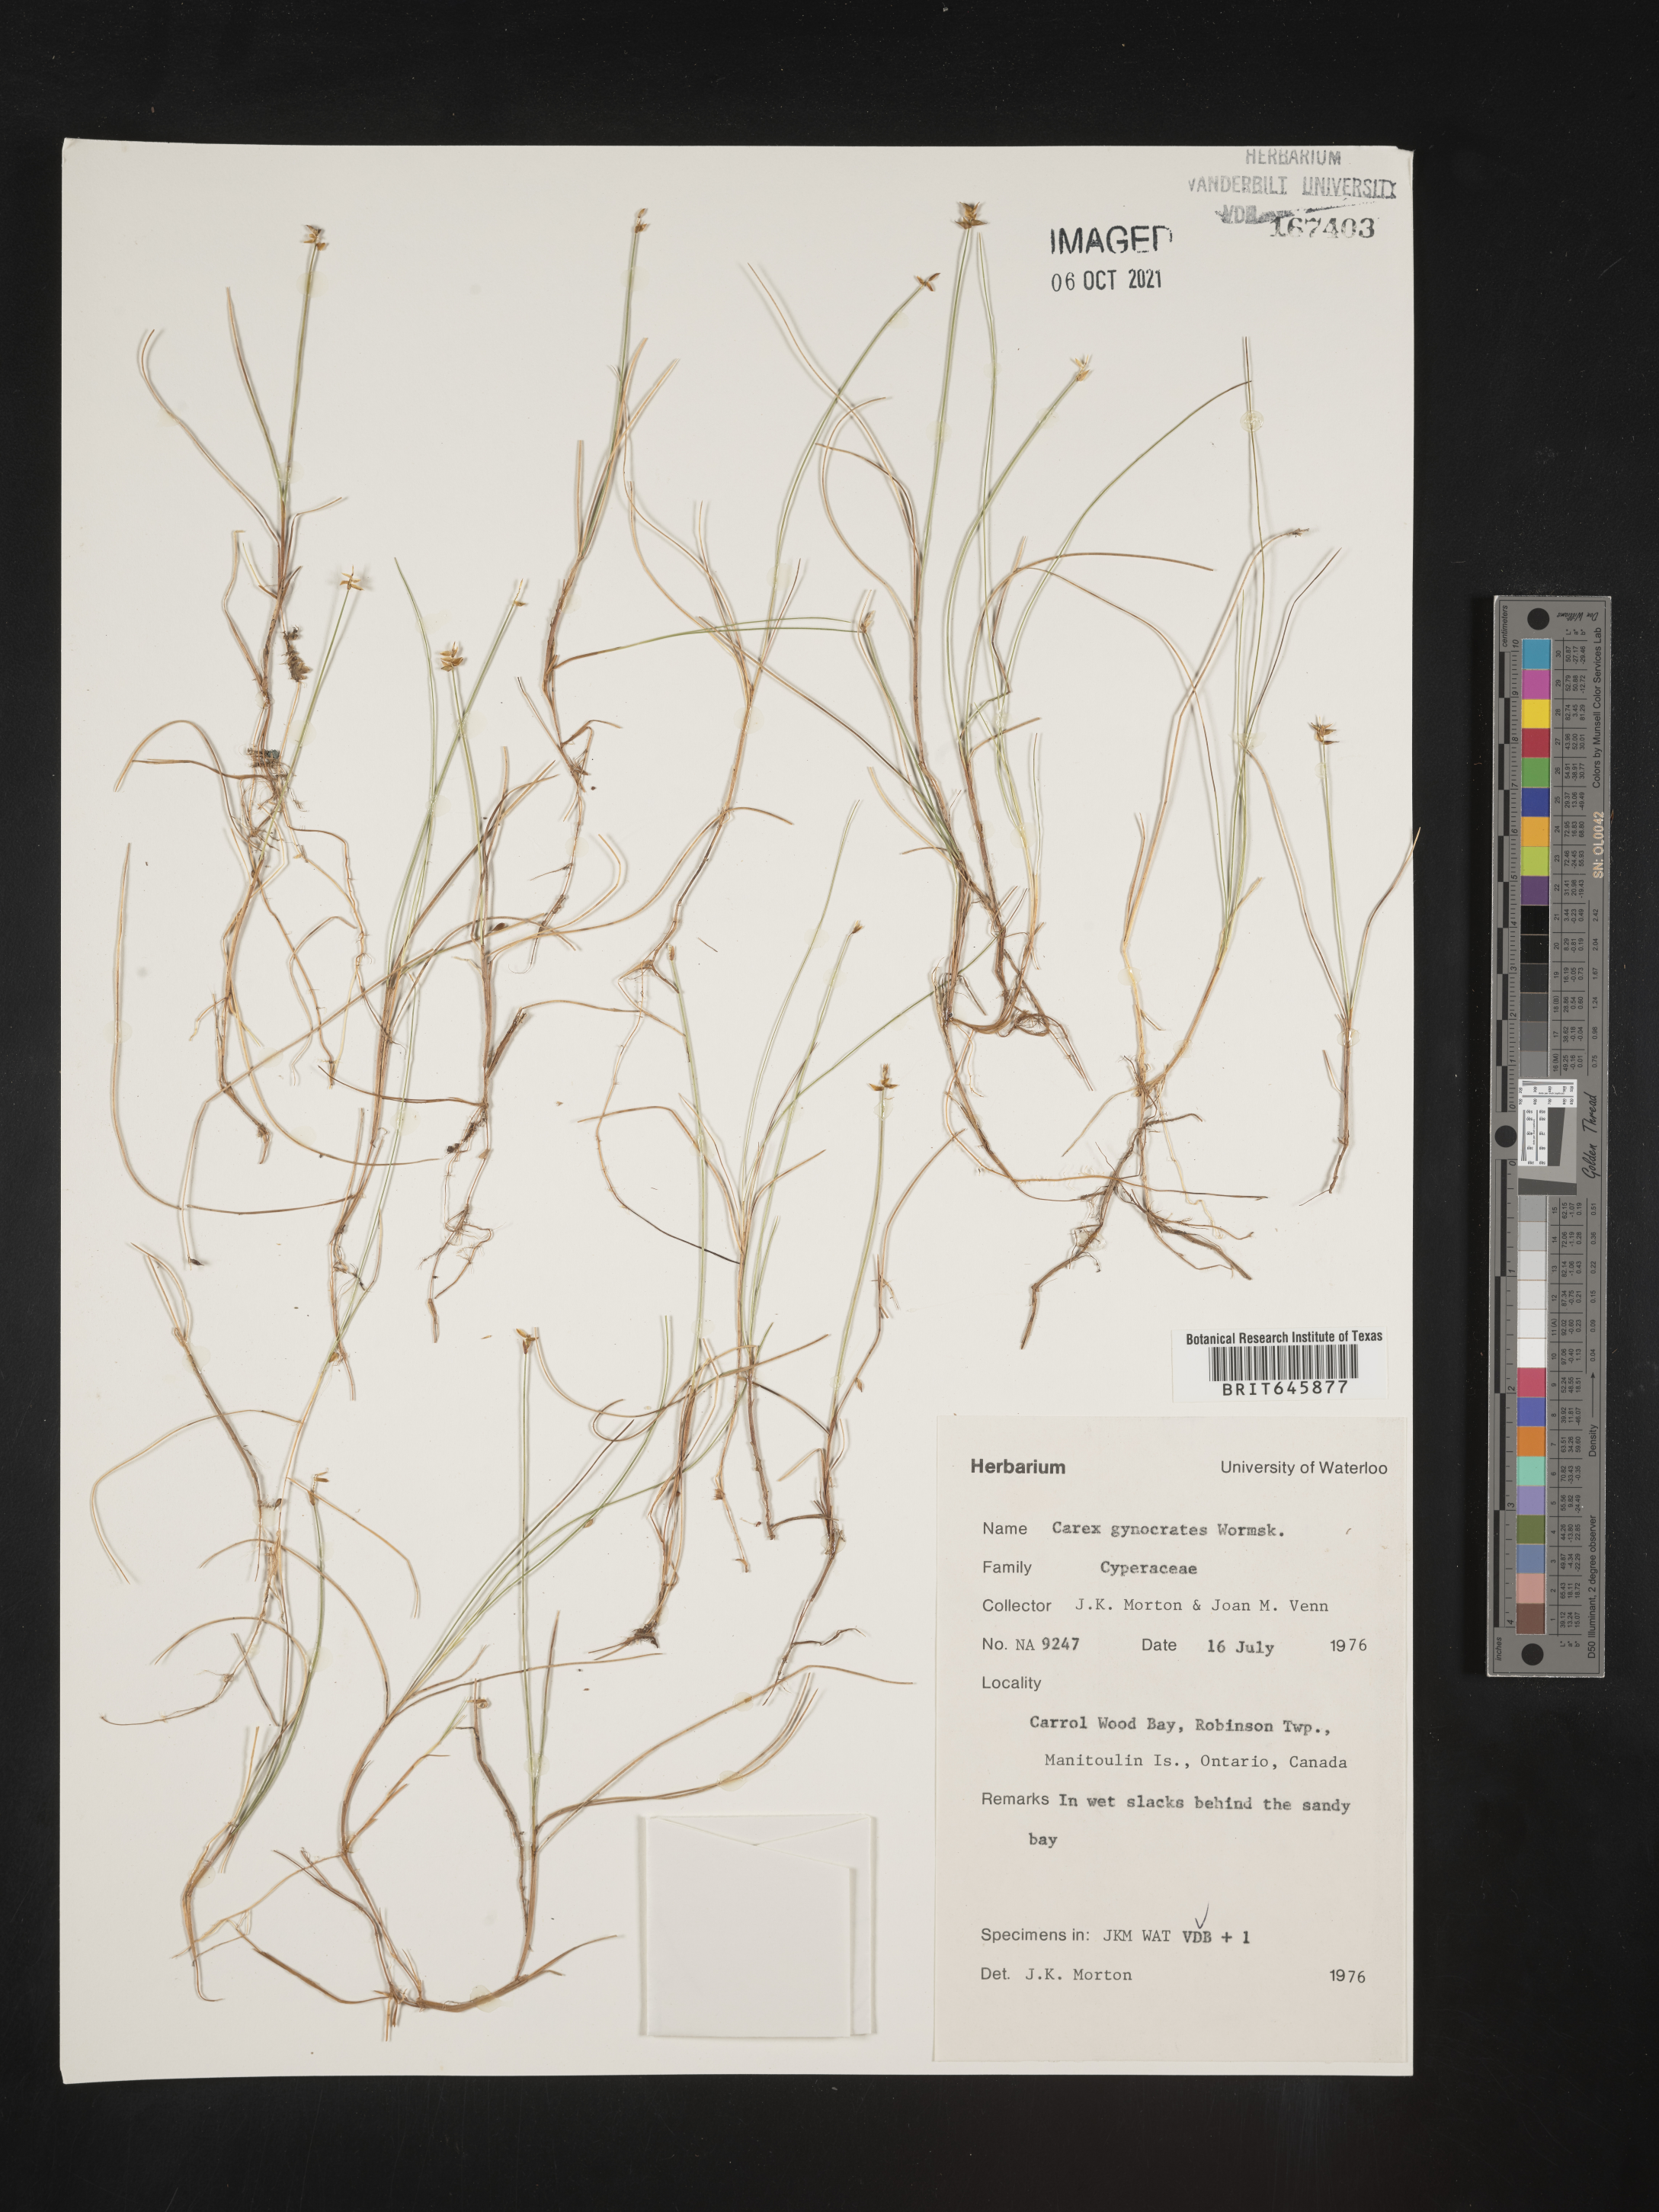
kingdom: Plantae
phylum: Tracheophyta
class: Liliopsida
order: Poales
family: Cyperaceae
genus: Carex
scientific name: Carex nardina
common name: Nard sedge
